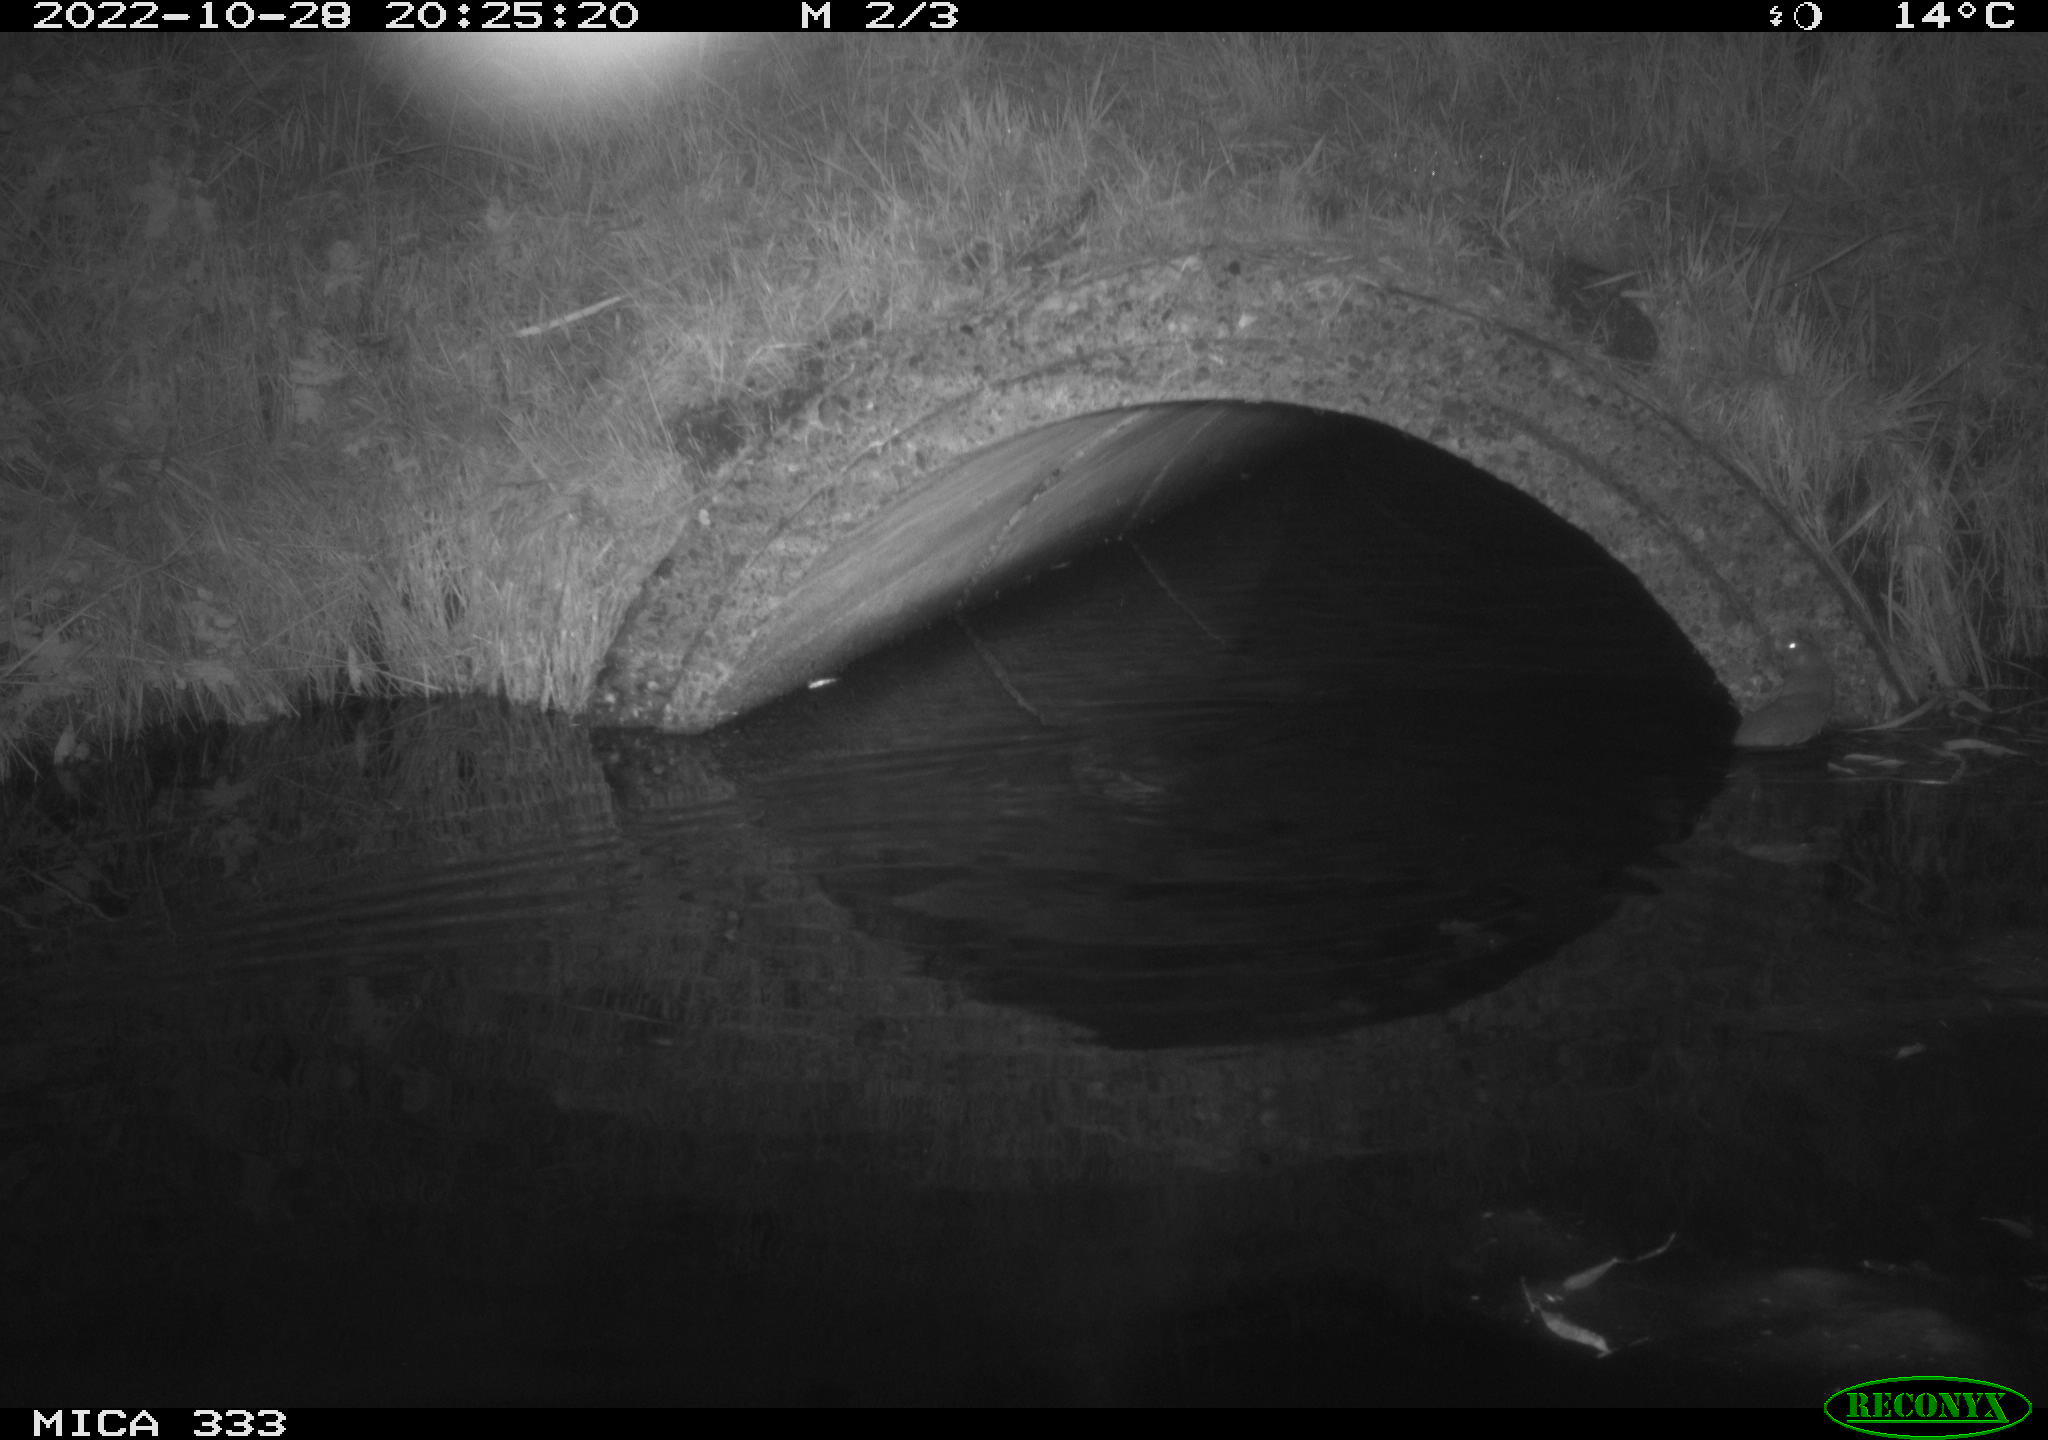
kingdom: Animalia
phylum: Chordata
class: Mammalia
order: Rodentia
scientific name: Rodentia
